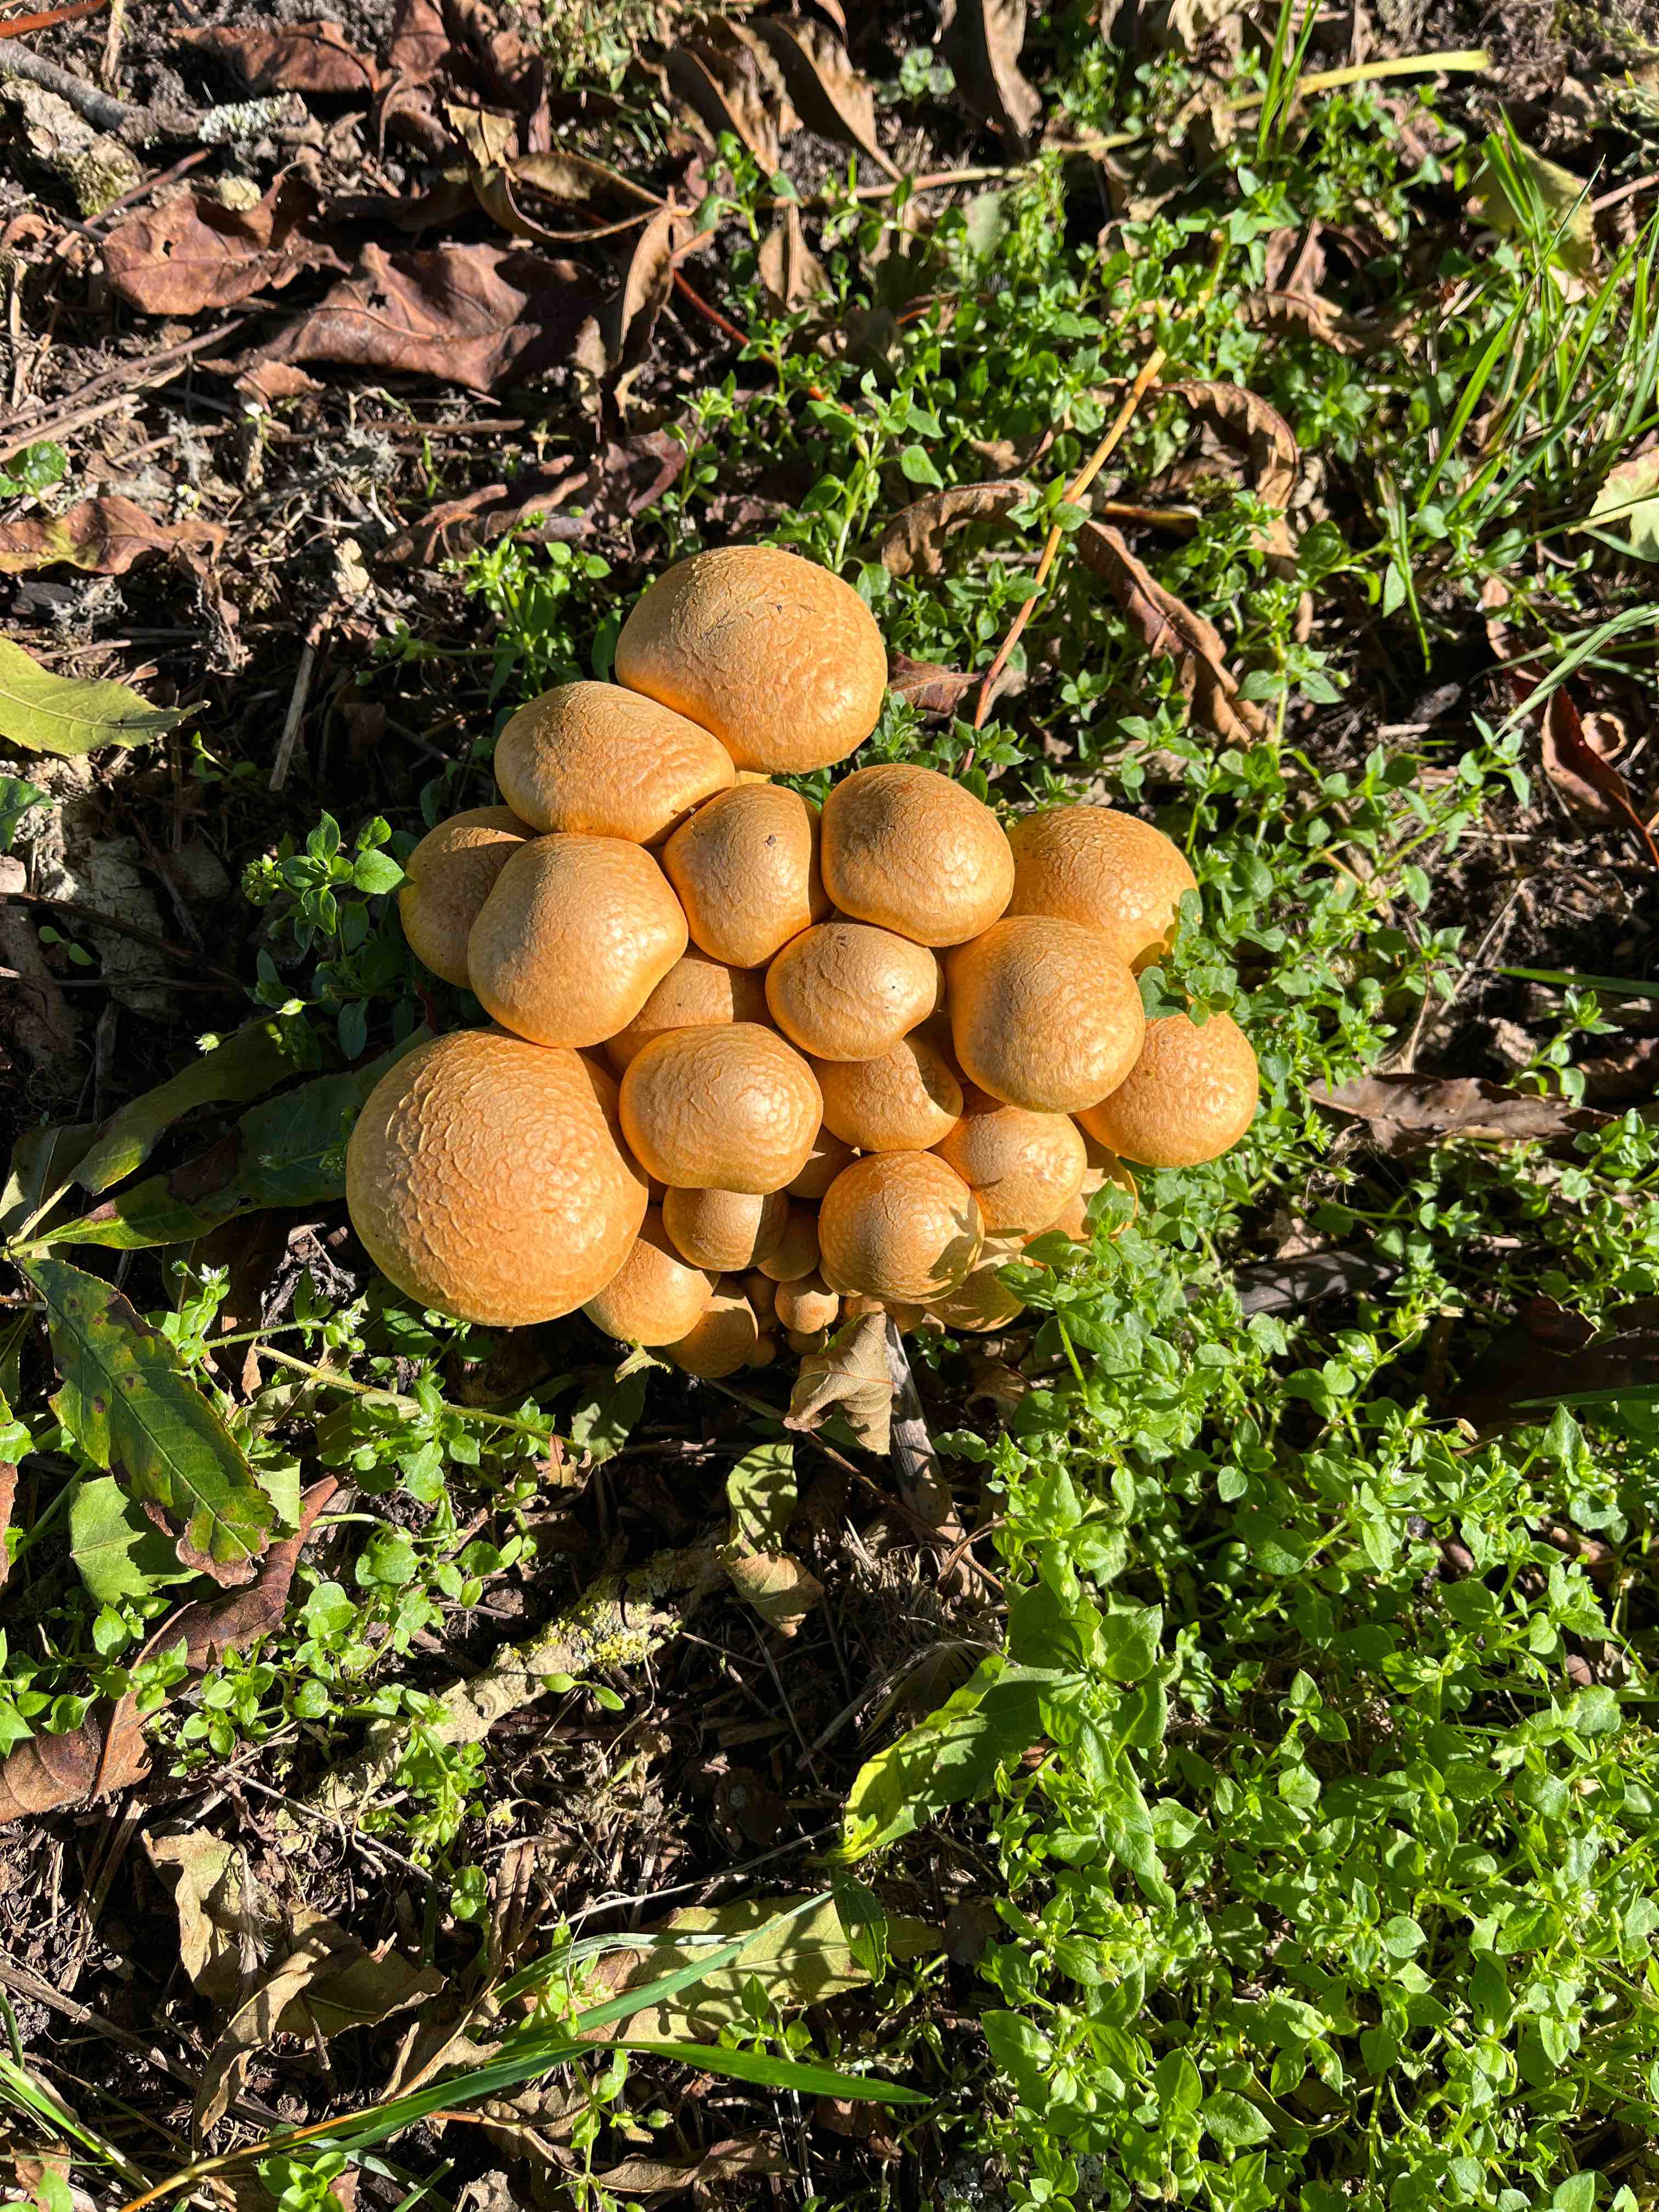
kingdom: Fungi
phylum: Basidiomycota
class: Agaricomycetes
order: Agaricales
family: Hymenogastraceae
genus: Gymnopilus
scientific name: Gymnopilus spectabilis
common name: fibret flammehat
